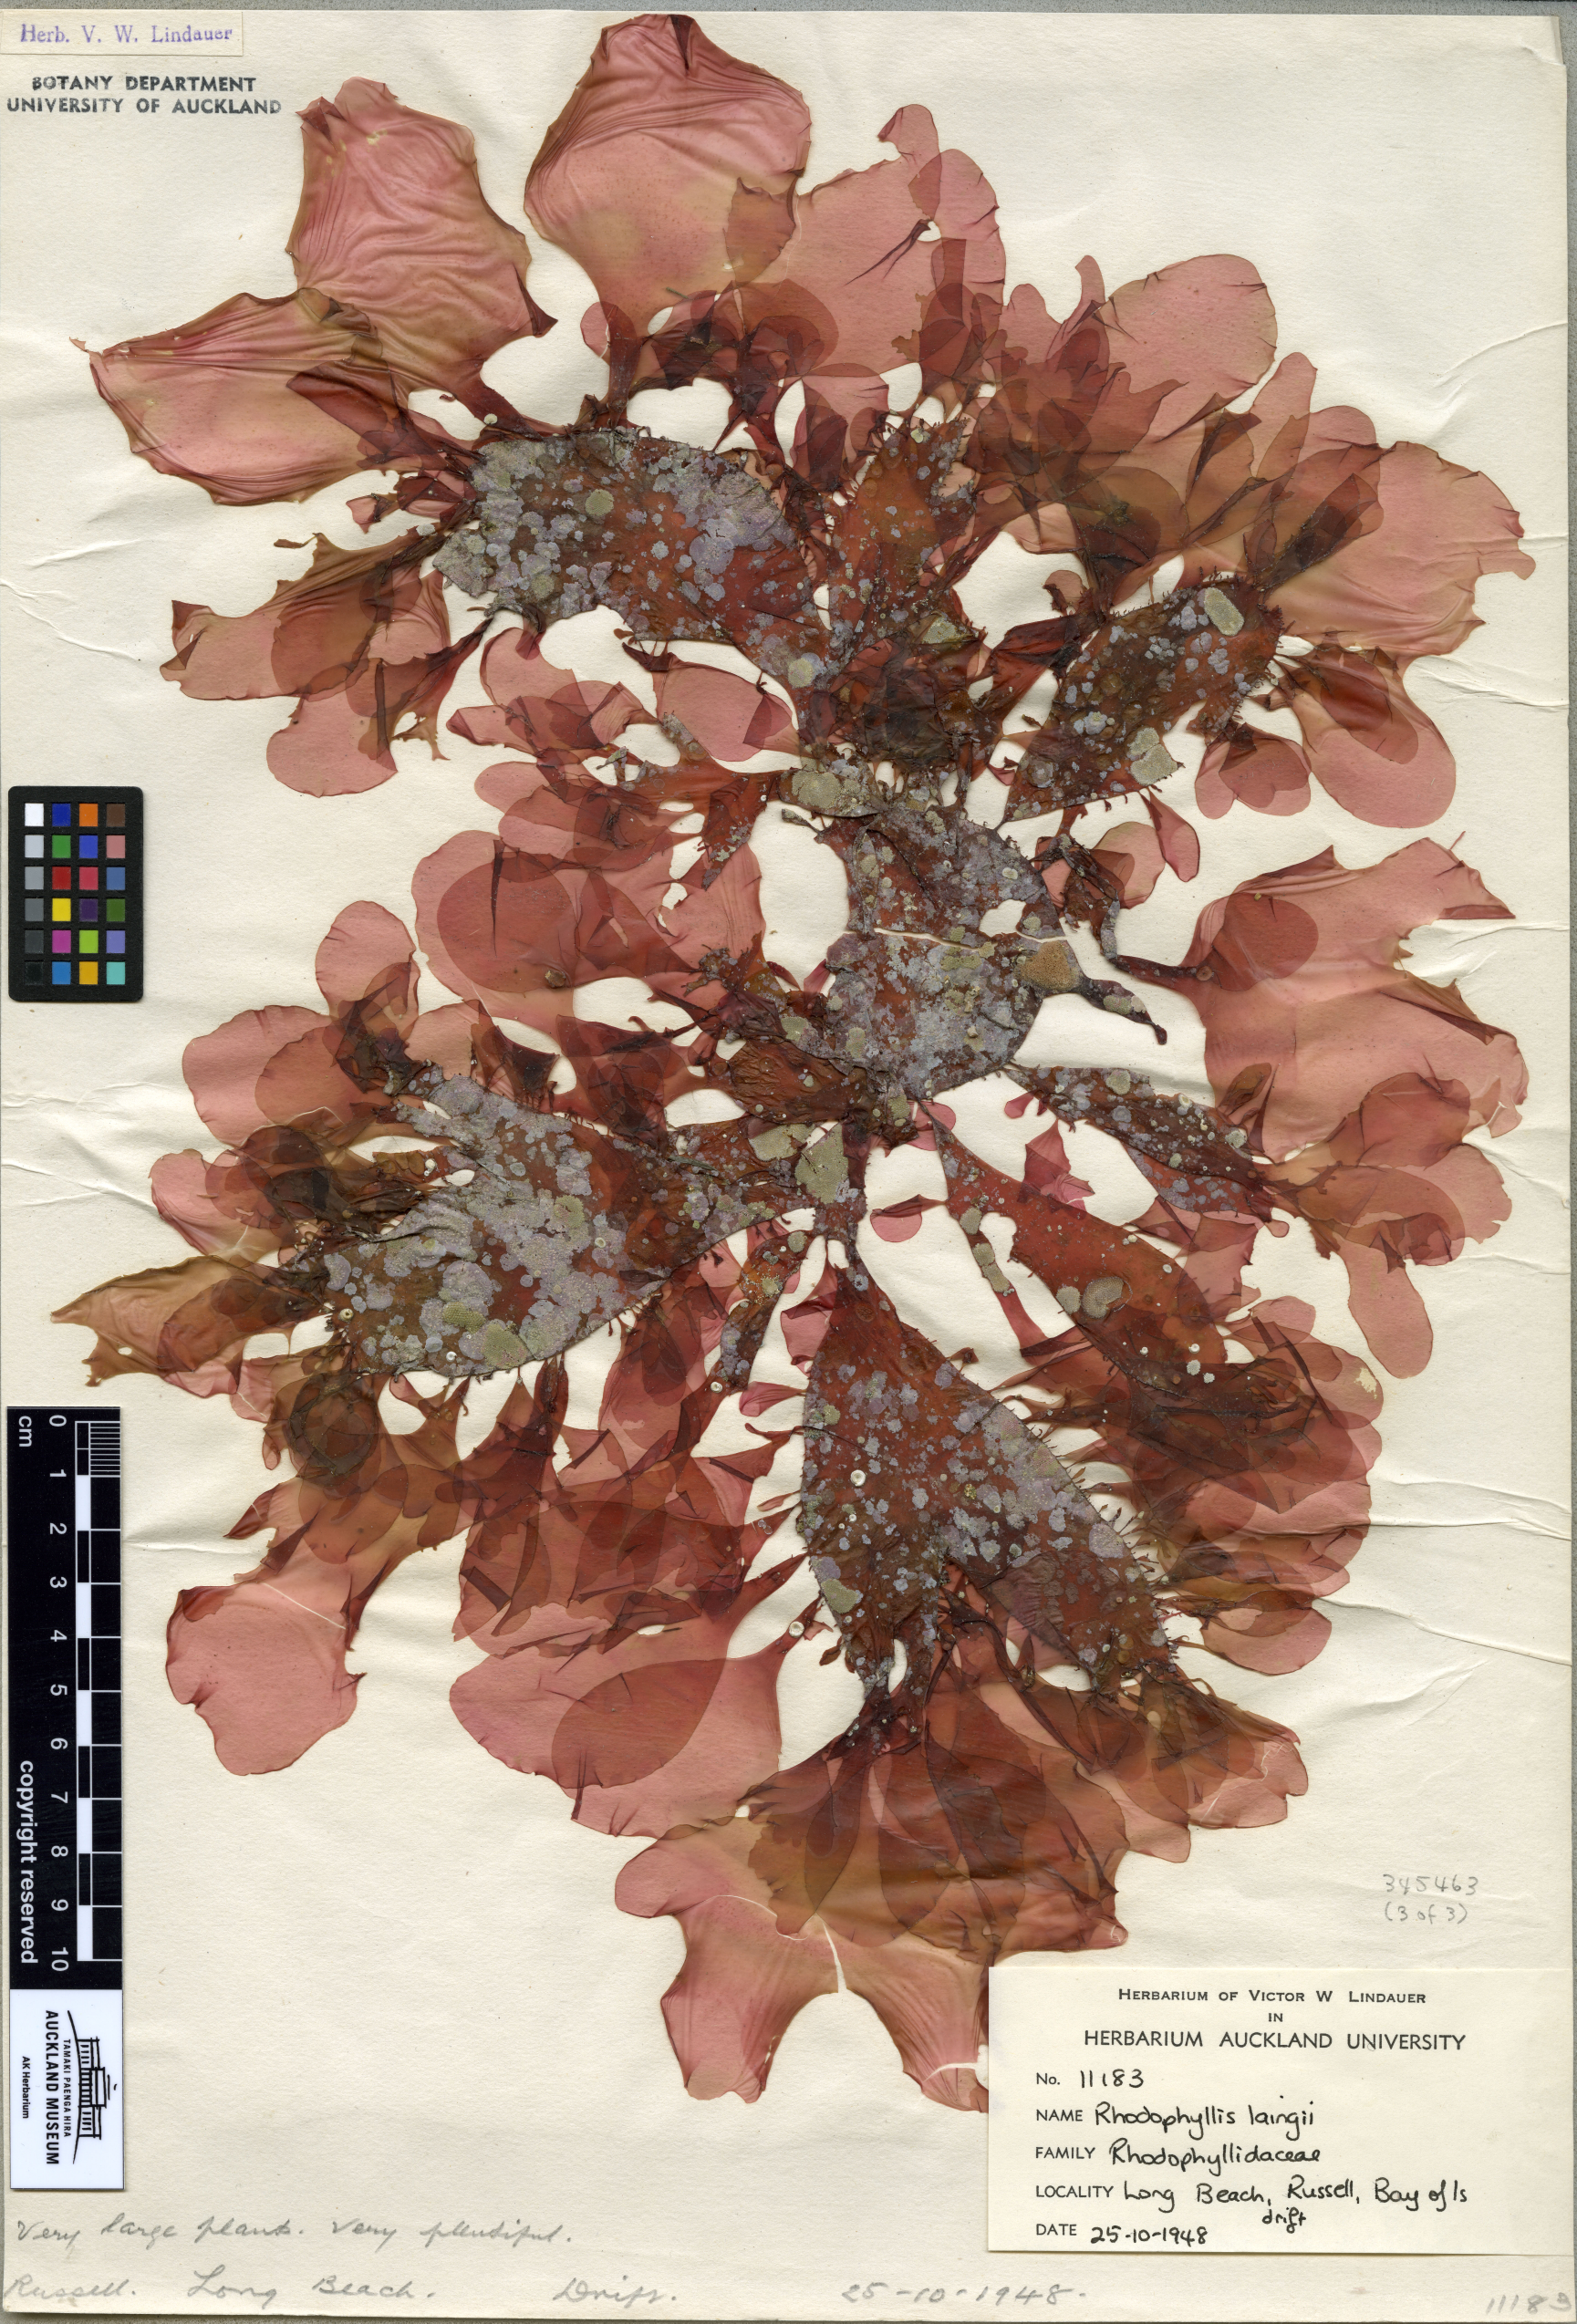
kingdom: Plantae
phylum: Rhodophyta
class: Florideophyceae
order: Halymeniales
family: Halymeniaceae
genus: Cryptonemia
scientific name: Cryptonemia
